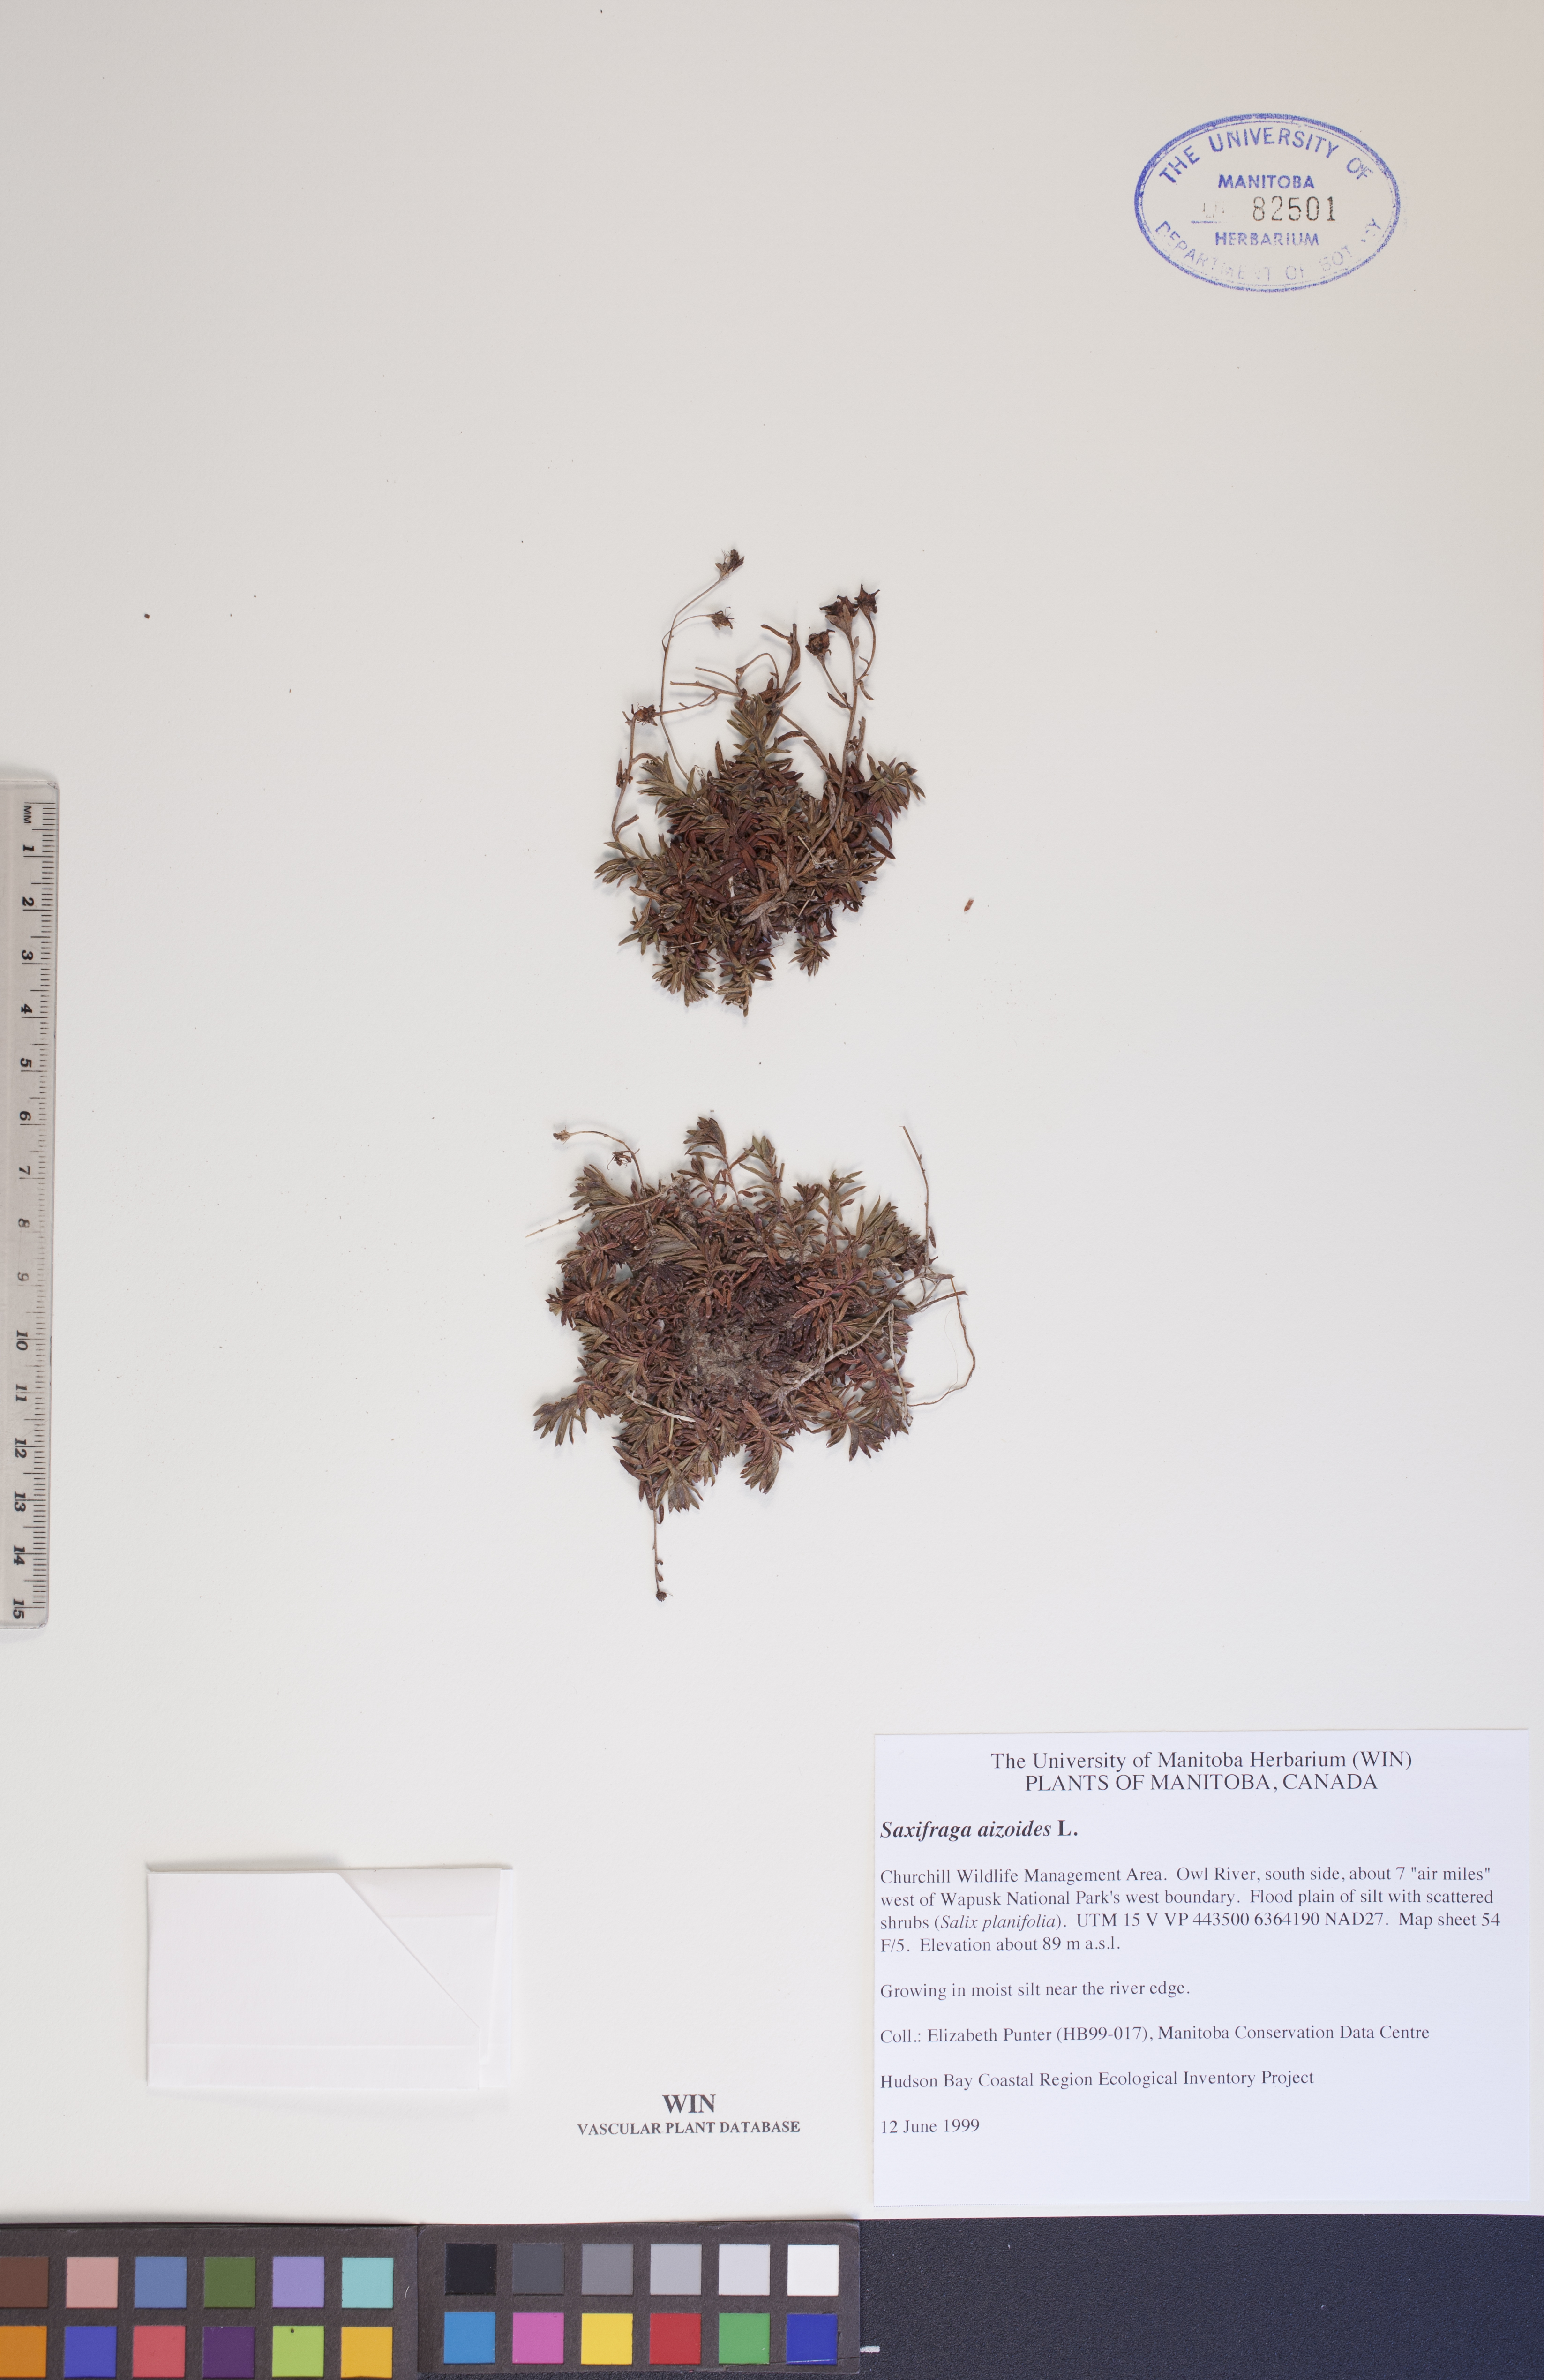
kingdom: Plantae
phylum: Tracheophyta
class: Magnoliopsida
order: Saxifragales
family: Saxifragaceae
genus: Saxifraga
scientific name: Saxifraga aizoides
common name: Yellow mountain saxifrage
